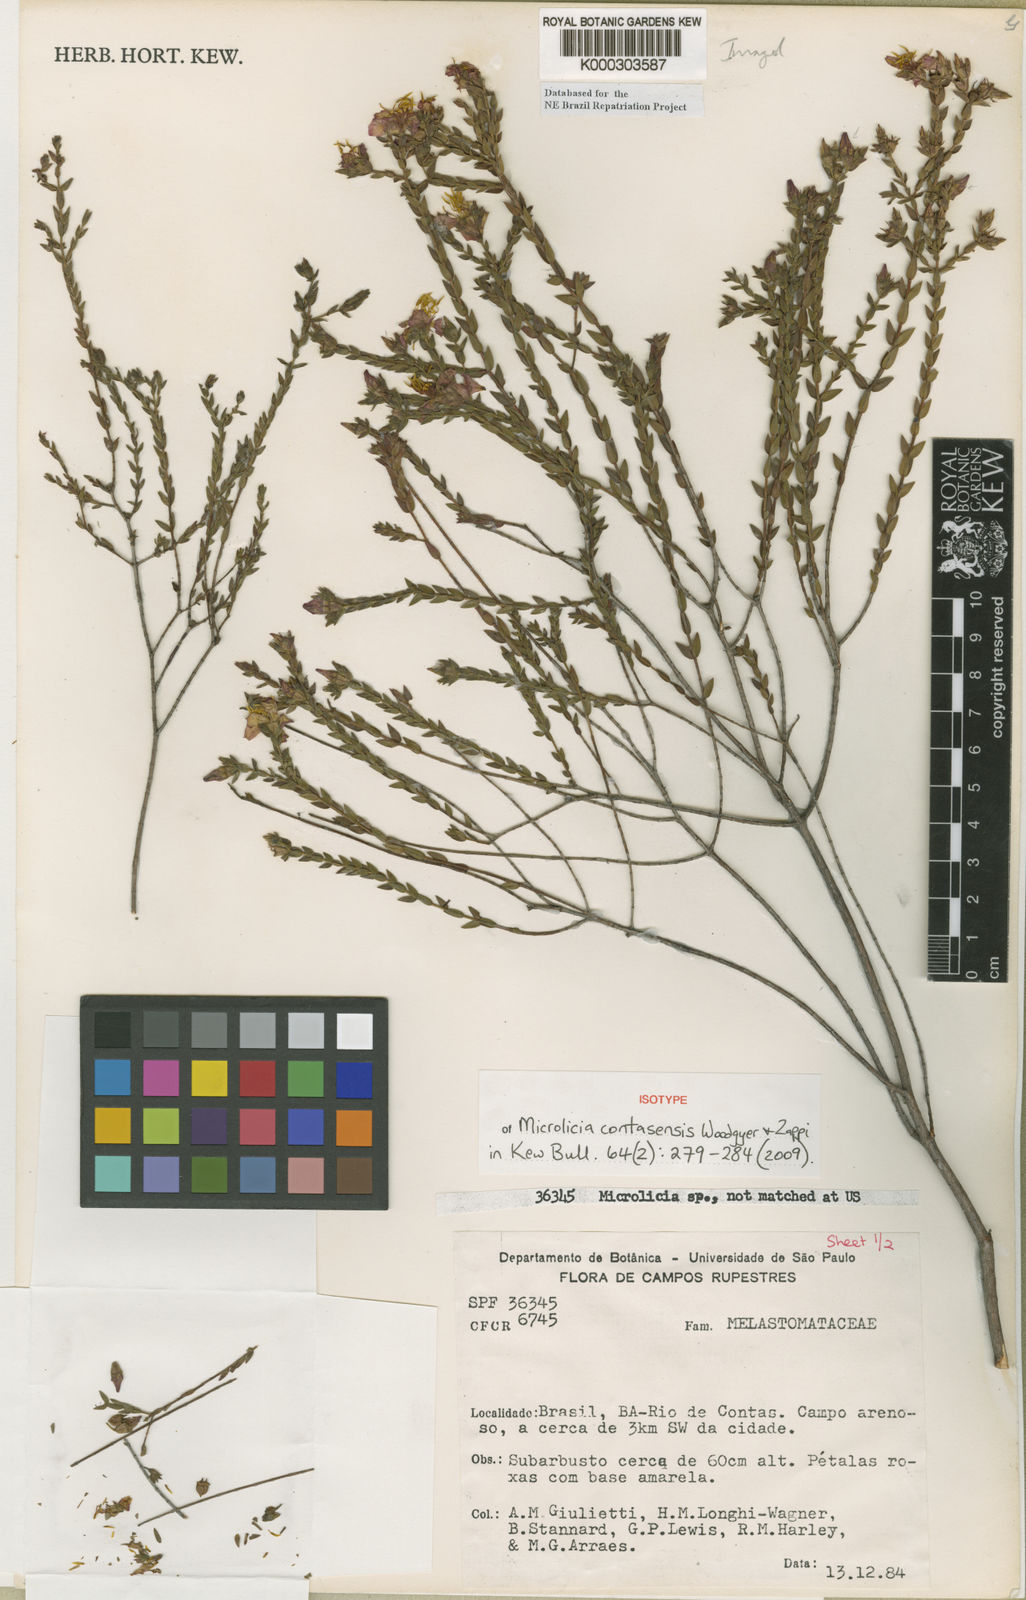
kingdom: Plantae
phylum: Tracheophyta
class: Magnoliopsida
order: Myrtales
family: Melastomataceae
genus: Microlicia
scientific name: Microlicia contasensis
